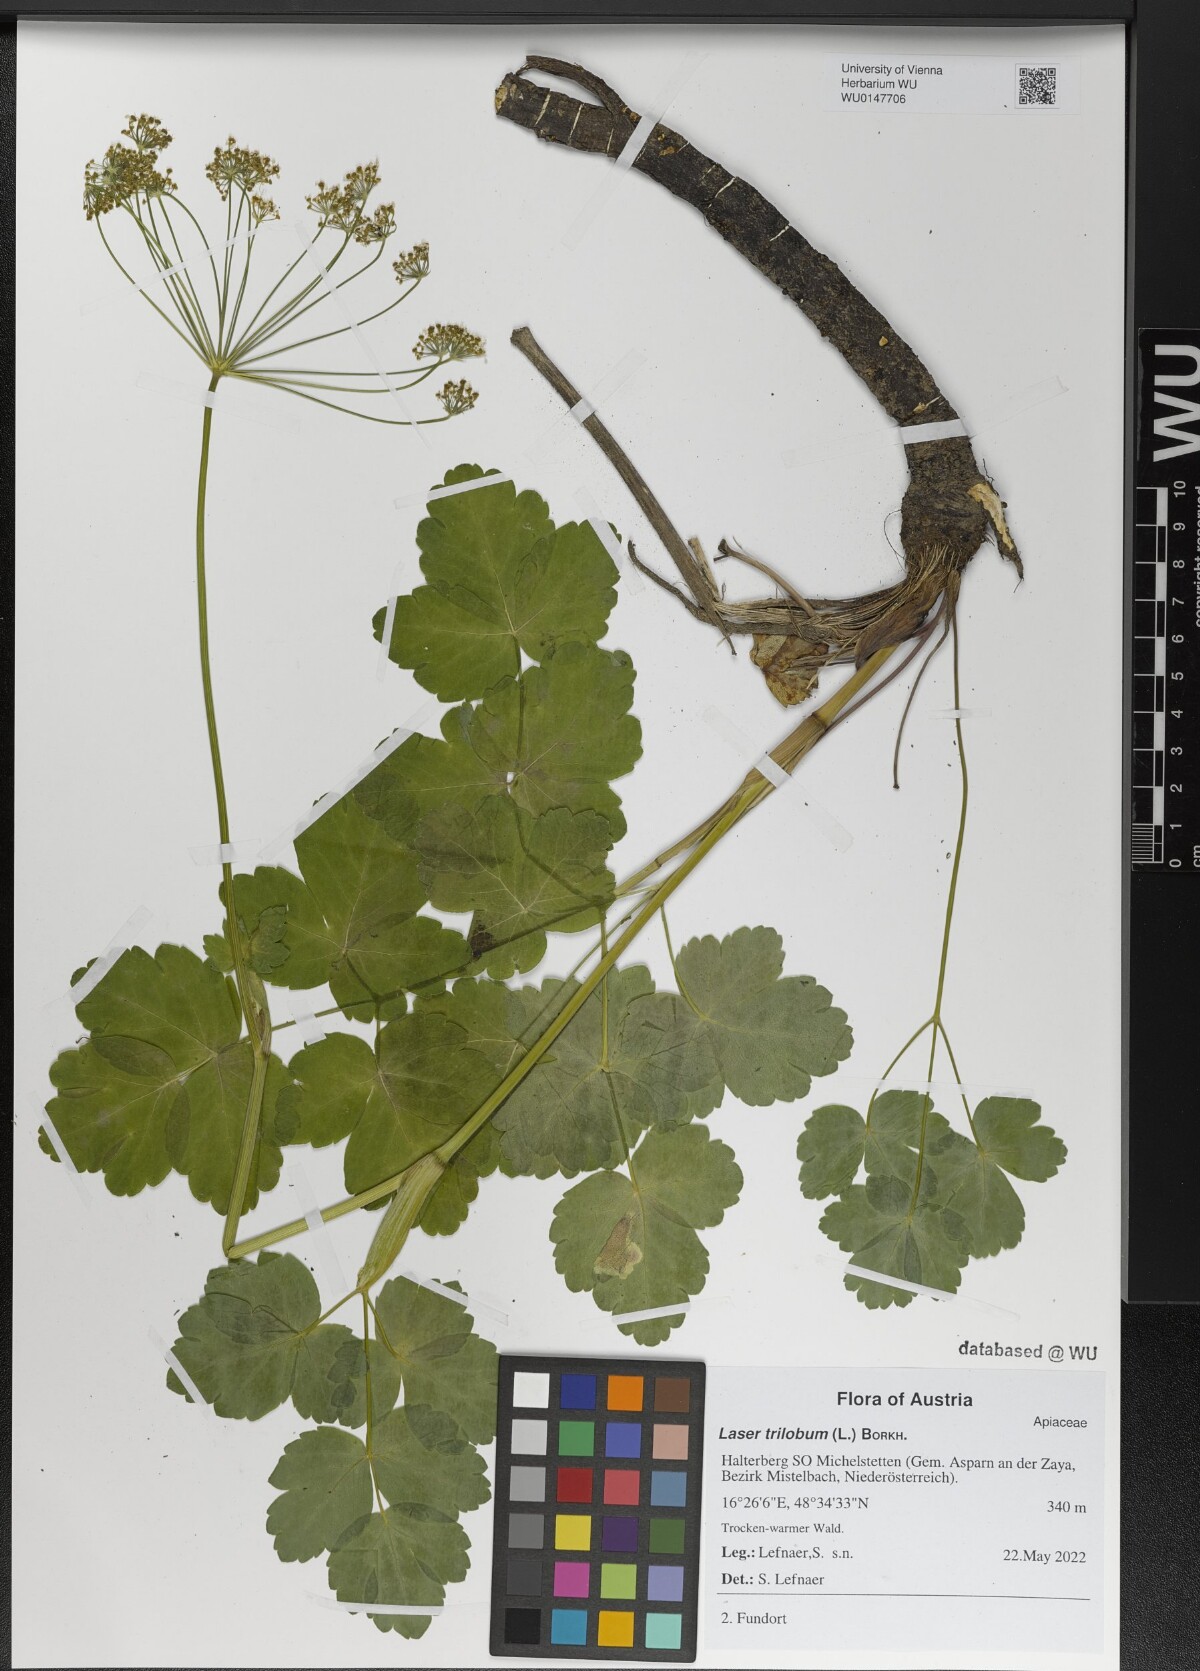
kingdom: Plantae
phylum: Tracheophyta
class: Magnoliopsida
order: Apiales
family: Apiaceae
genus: Laser
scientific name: Laser trilobum
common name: Laser
